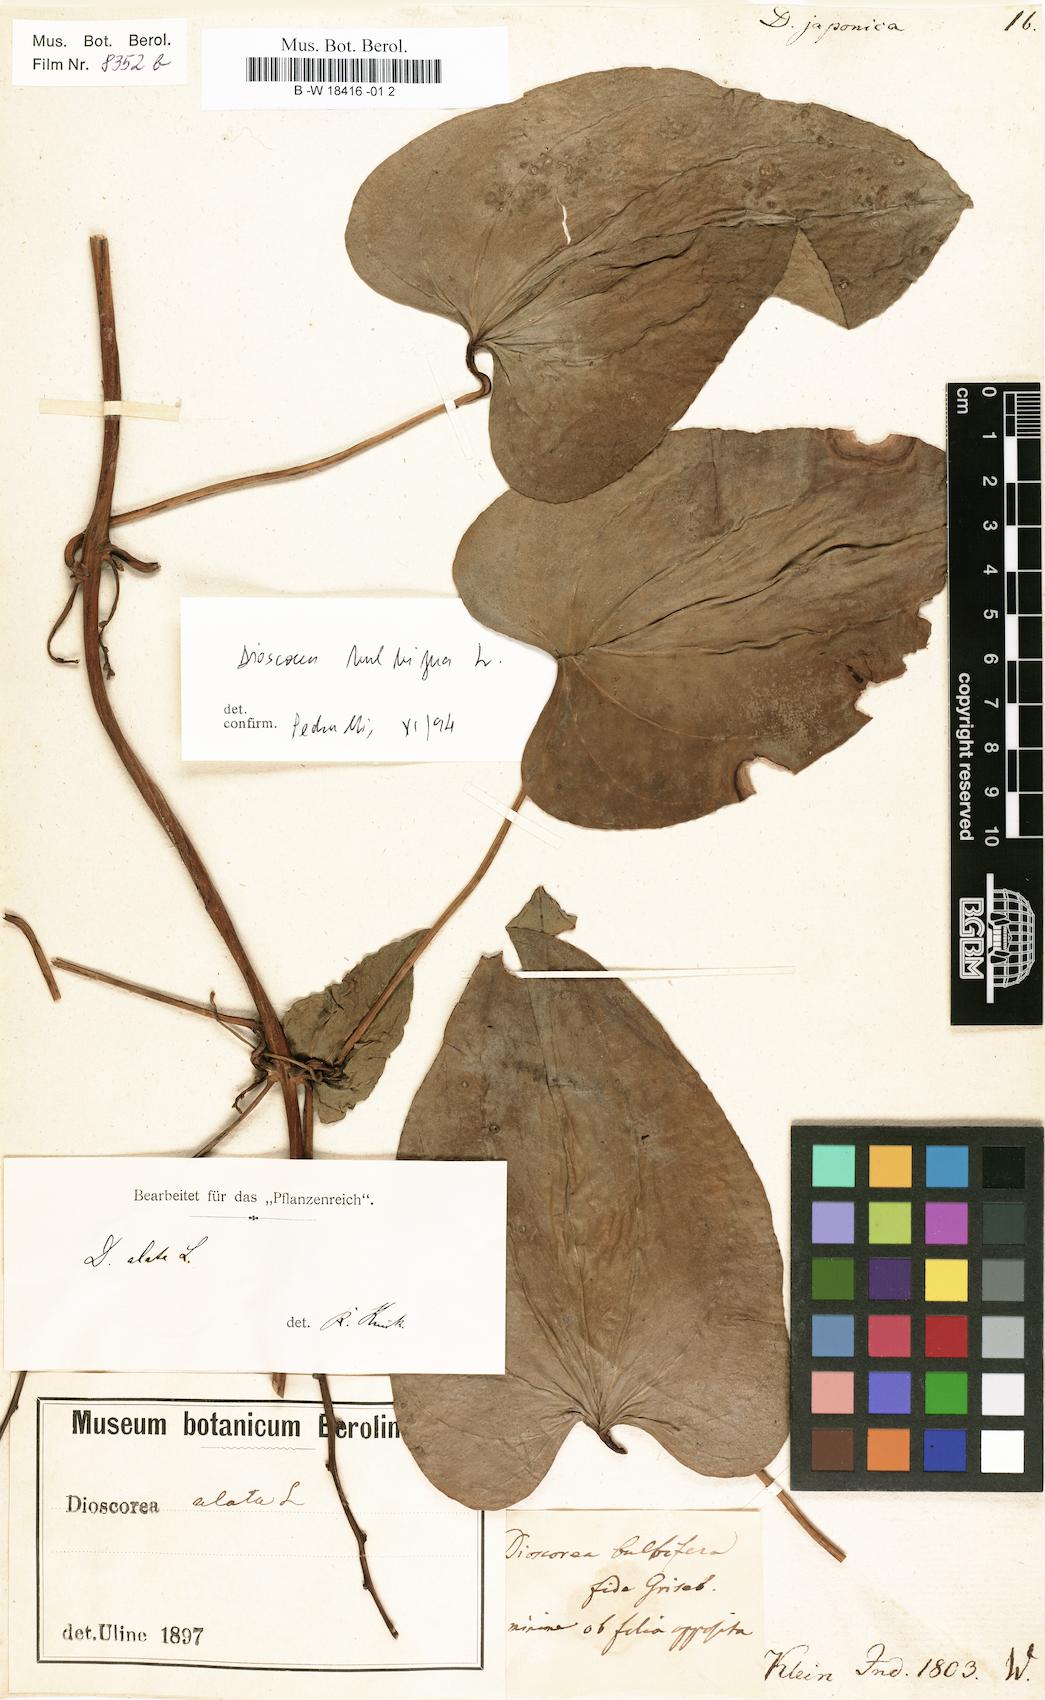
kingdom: Plantae
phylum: Tracheophyta
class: Liliopsida
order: Dioscoreales
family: Dioscoreaceae
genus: Dioscorea
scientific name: Dioscorea japonica
